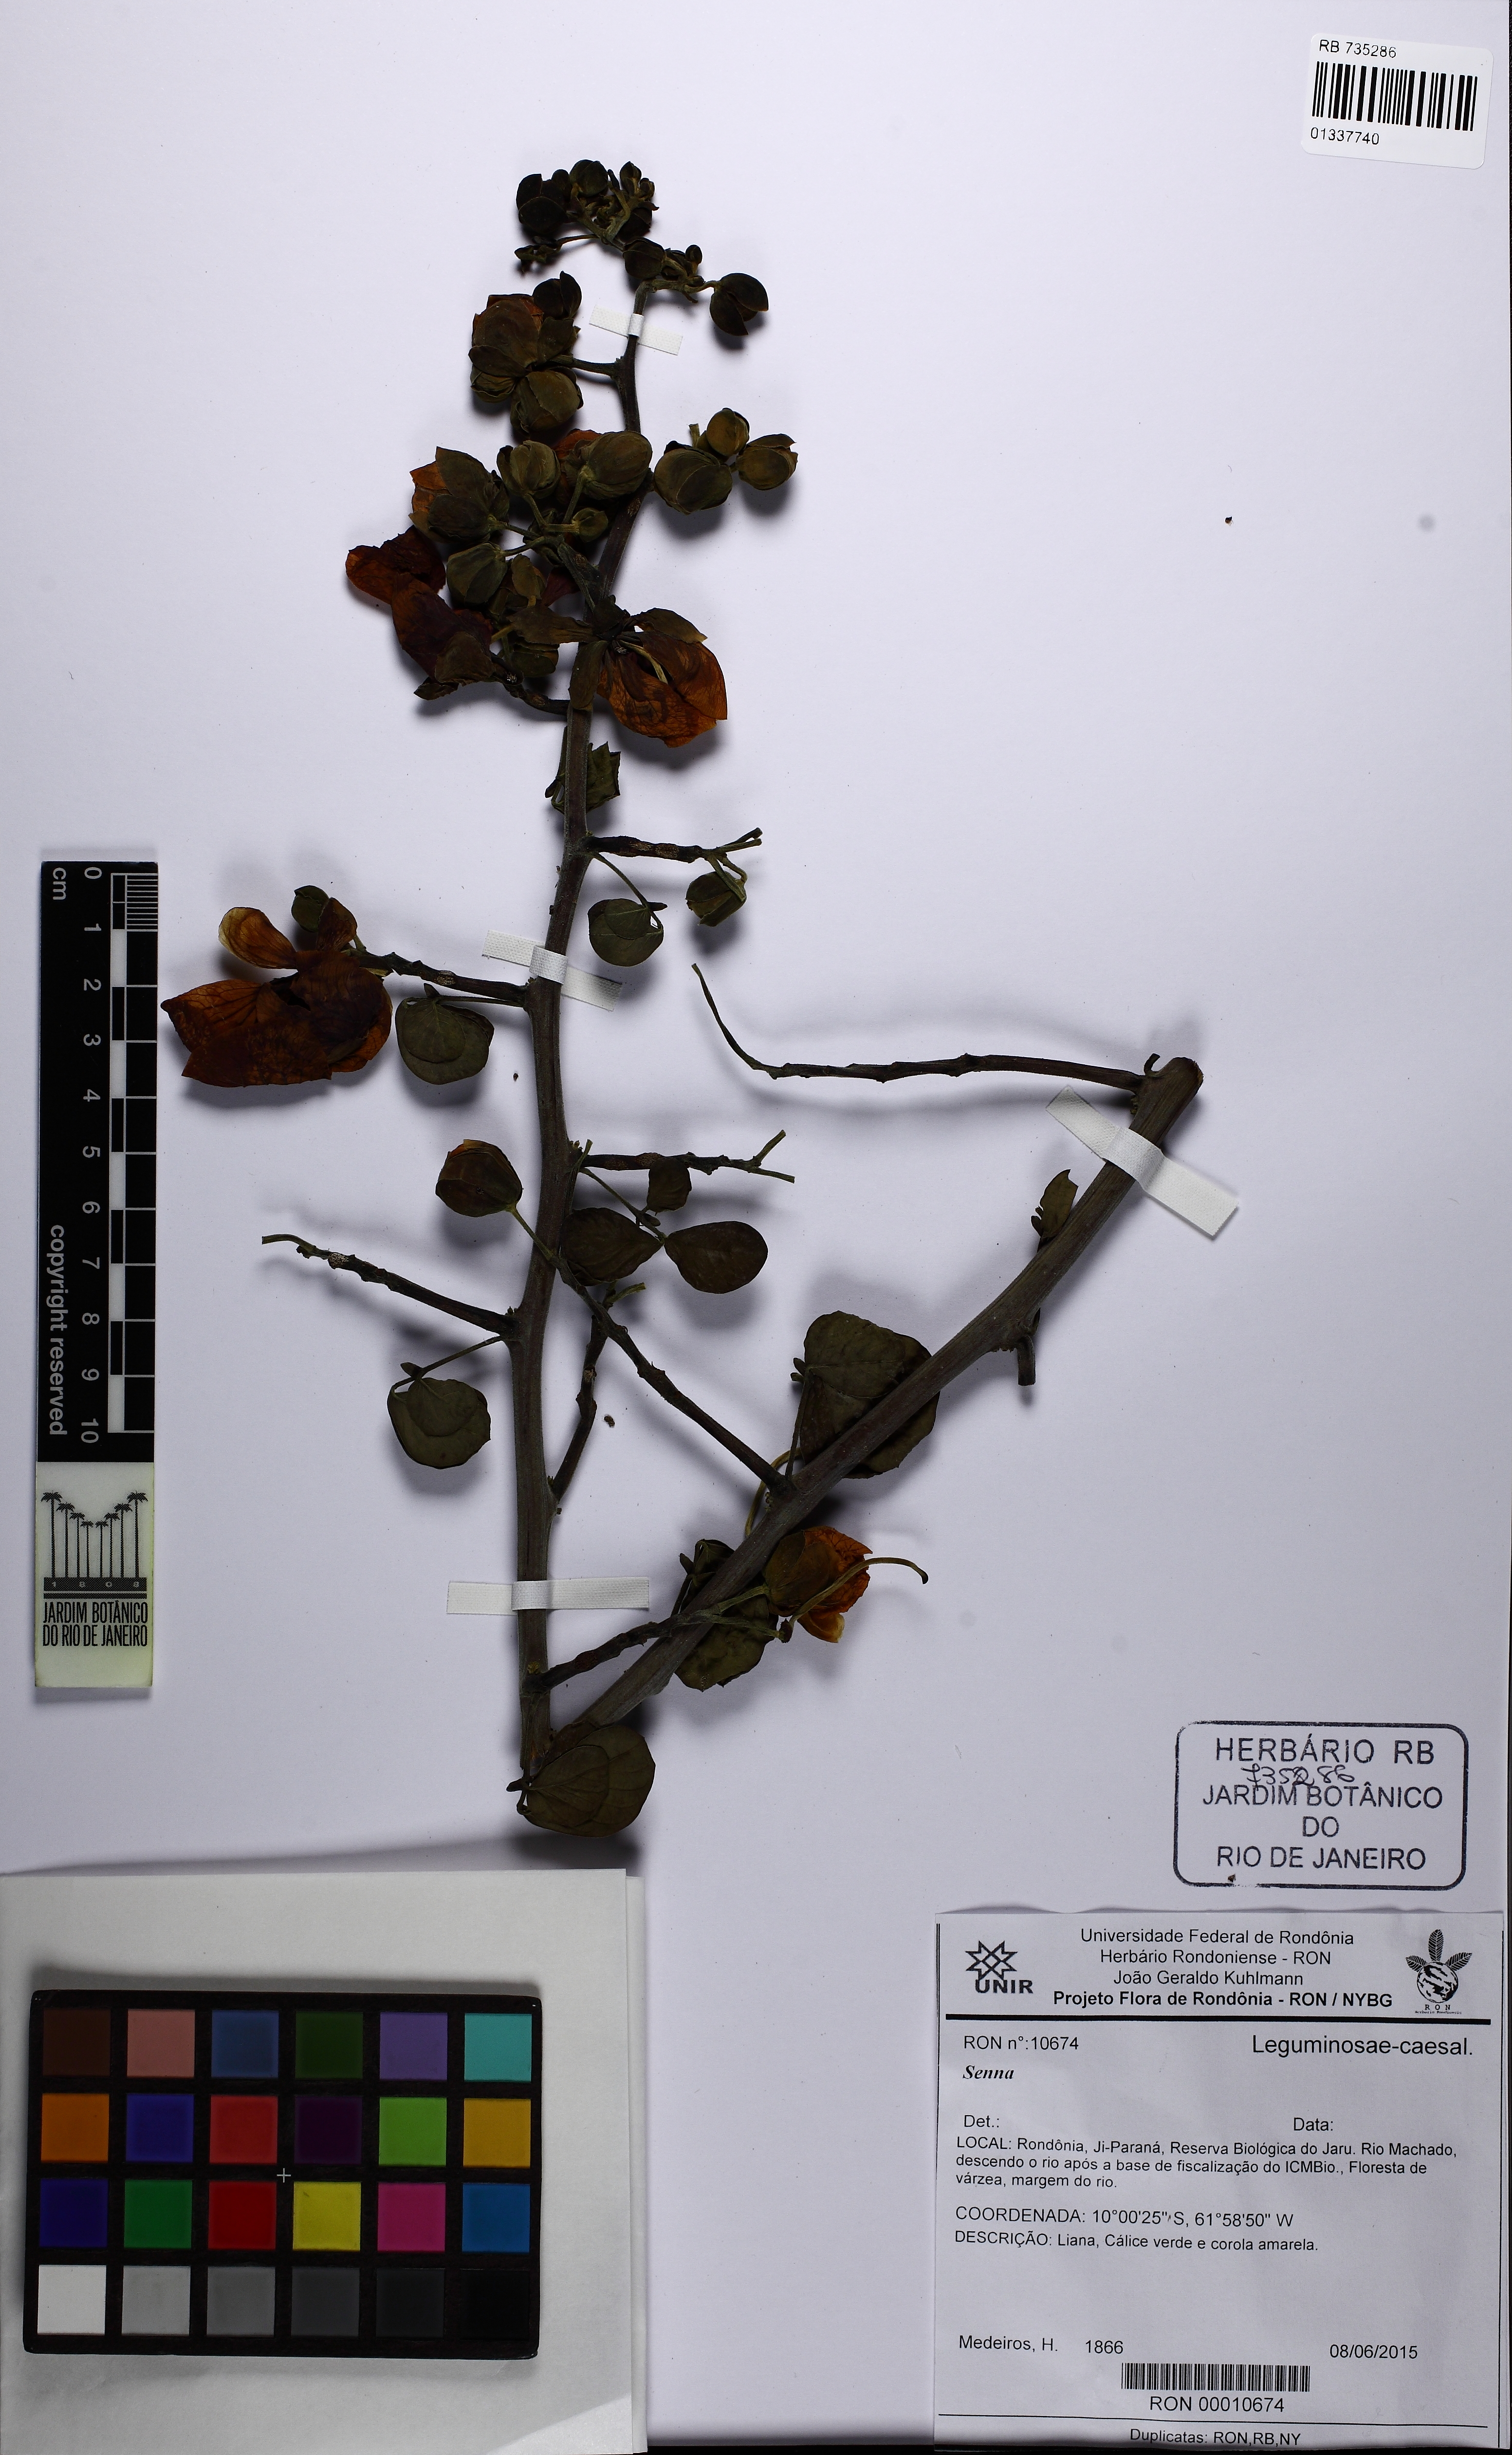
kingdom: Plantae
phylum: Tracheophyta
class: Magnoliopsida
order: Fabales
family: Fabaceae
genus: Senna
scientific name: Senna
